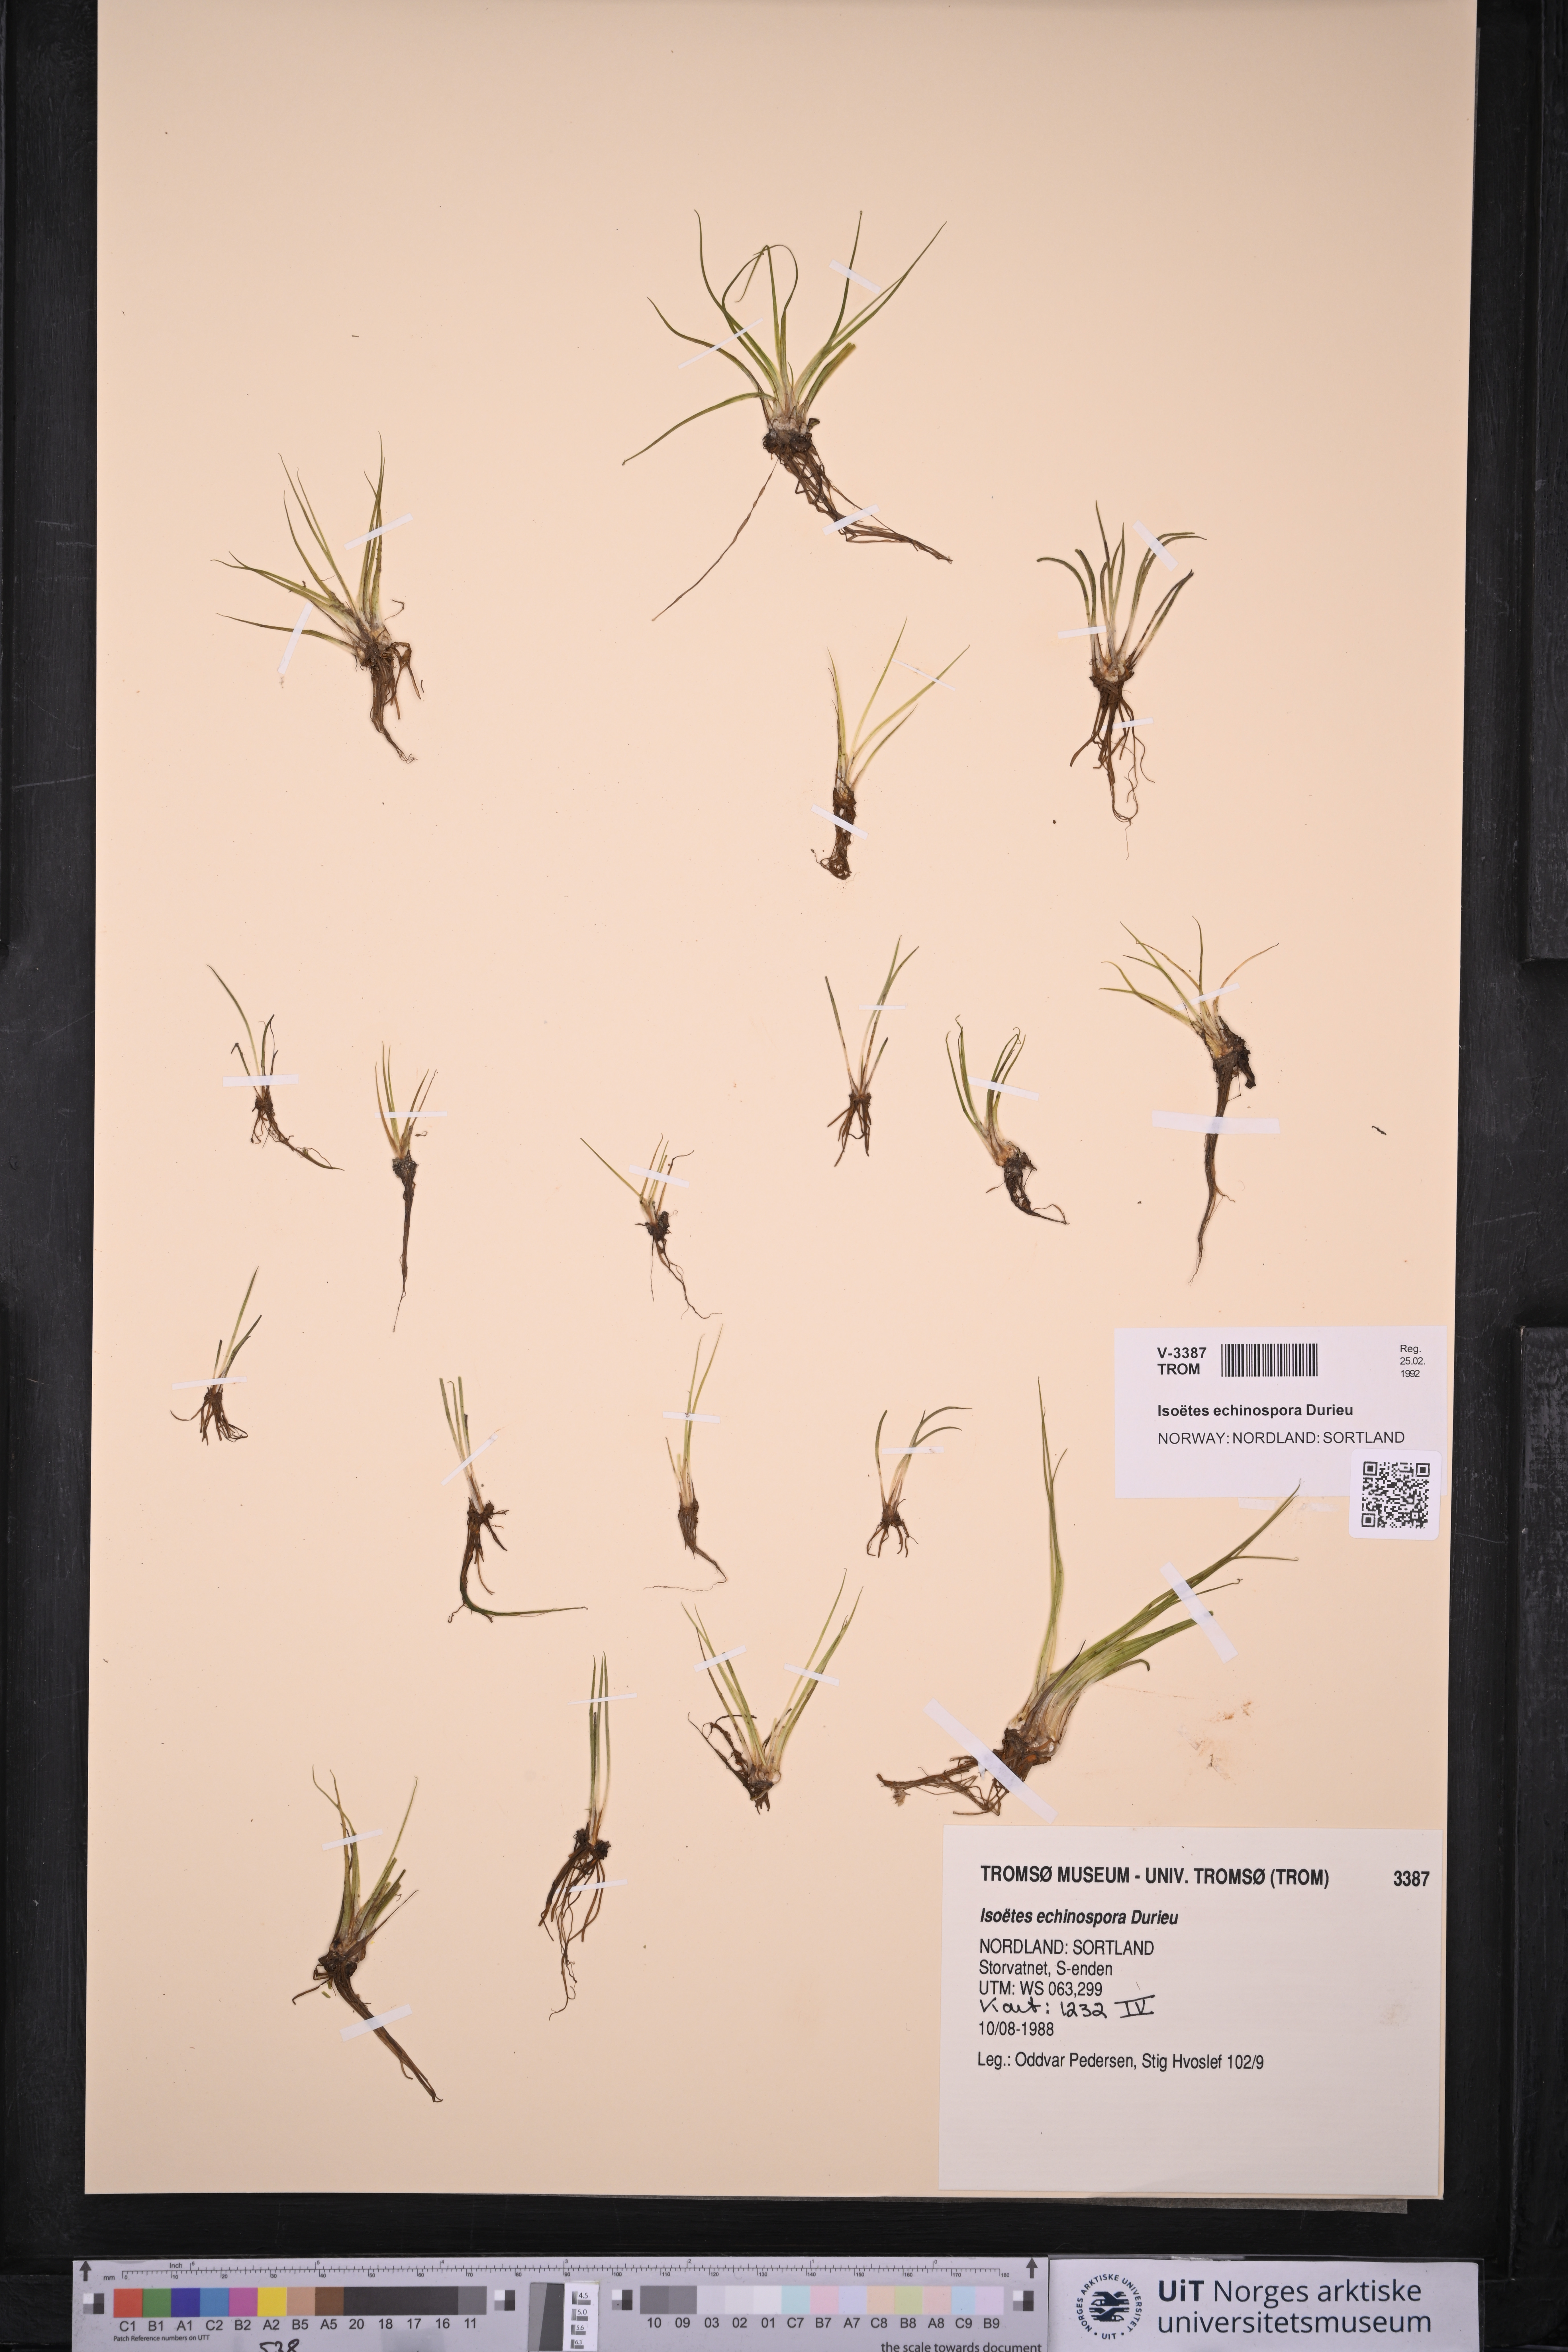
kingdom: Plantae
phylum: Tracheophyta
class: Lycopodiopsida
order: Isoetales
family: Isoetaceae
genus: Isoetes
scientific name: Isoetes echinospora
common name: Spring quillwort
